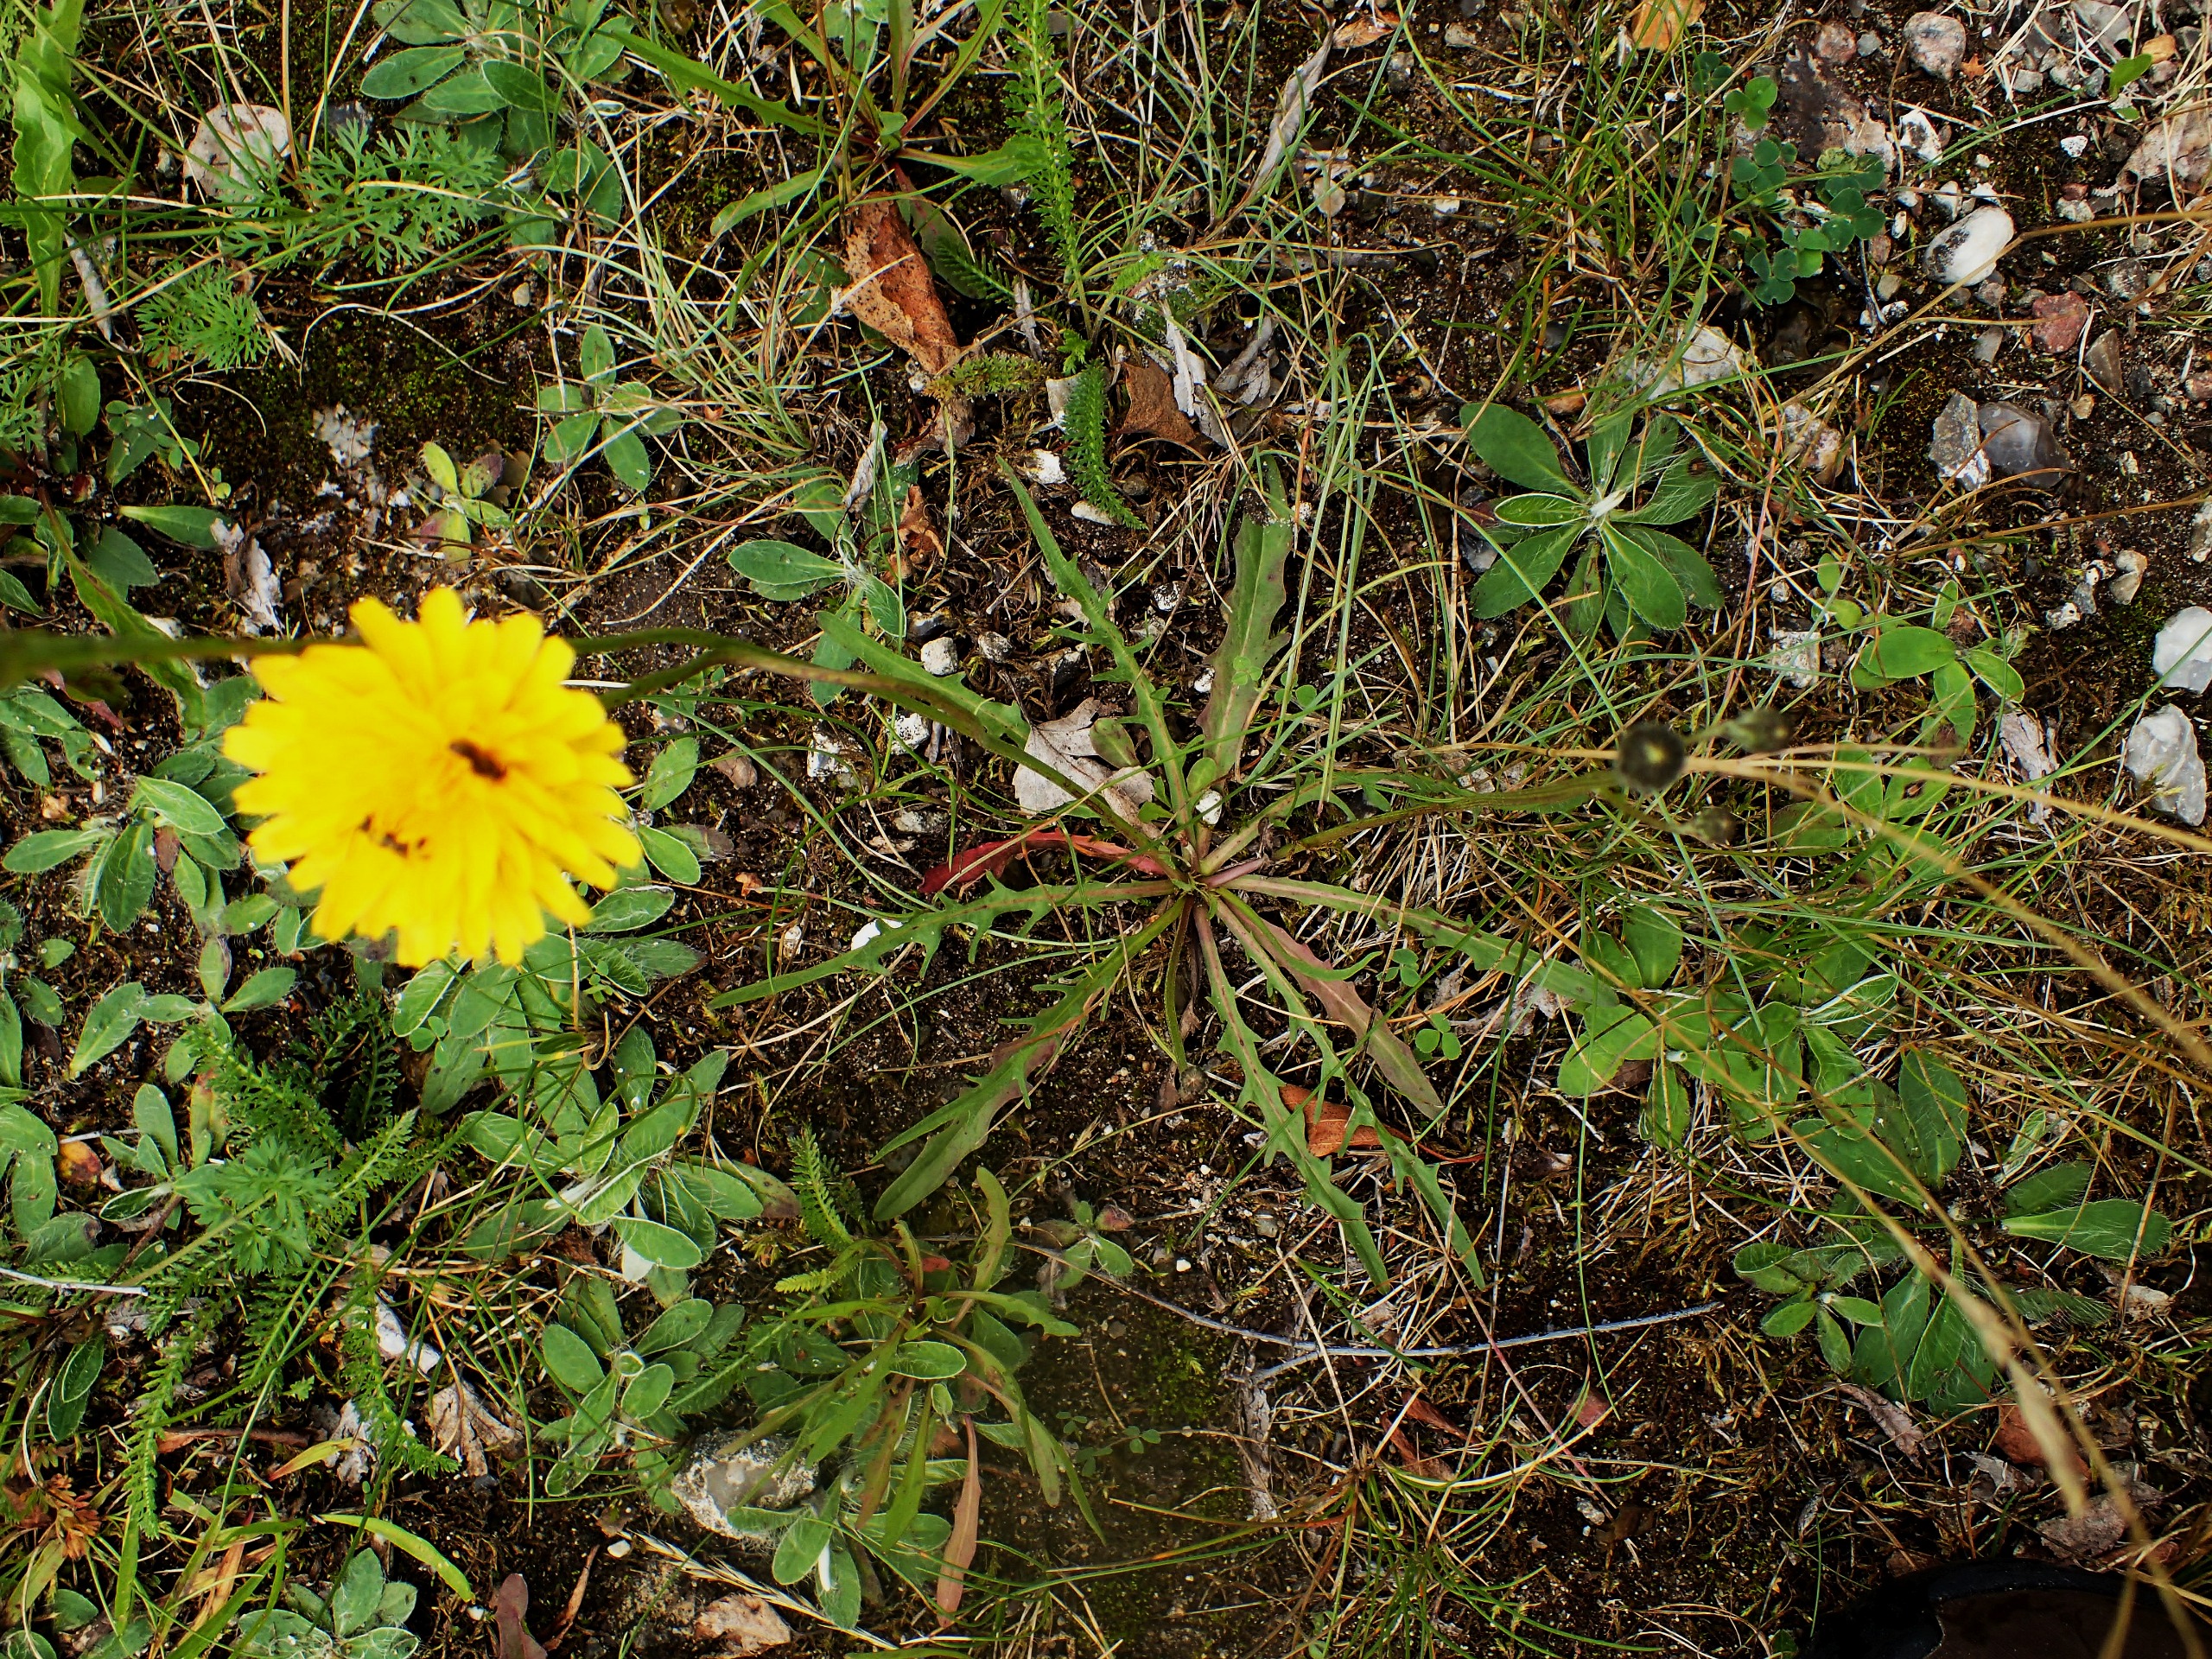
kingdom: Plantae
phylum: Tracheophyta
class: Magnoliopsida
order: Asterales
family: Asteraceae
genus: Scorzoneroides
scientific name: Scorzoneroides autumnalis
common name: Høst-borst
